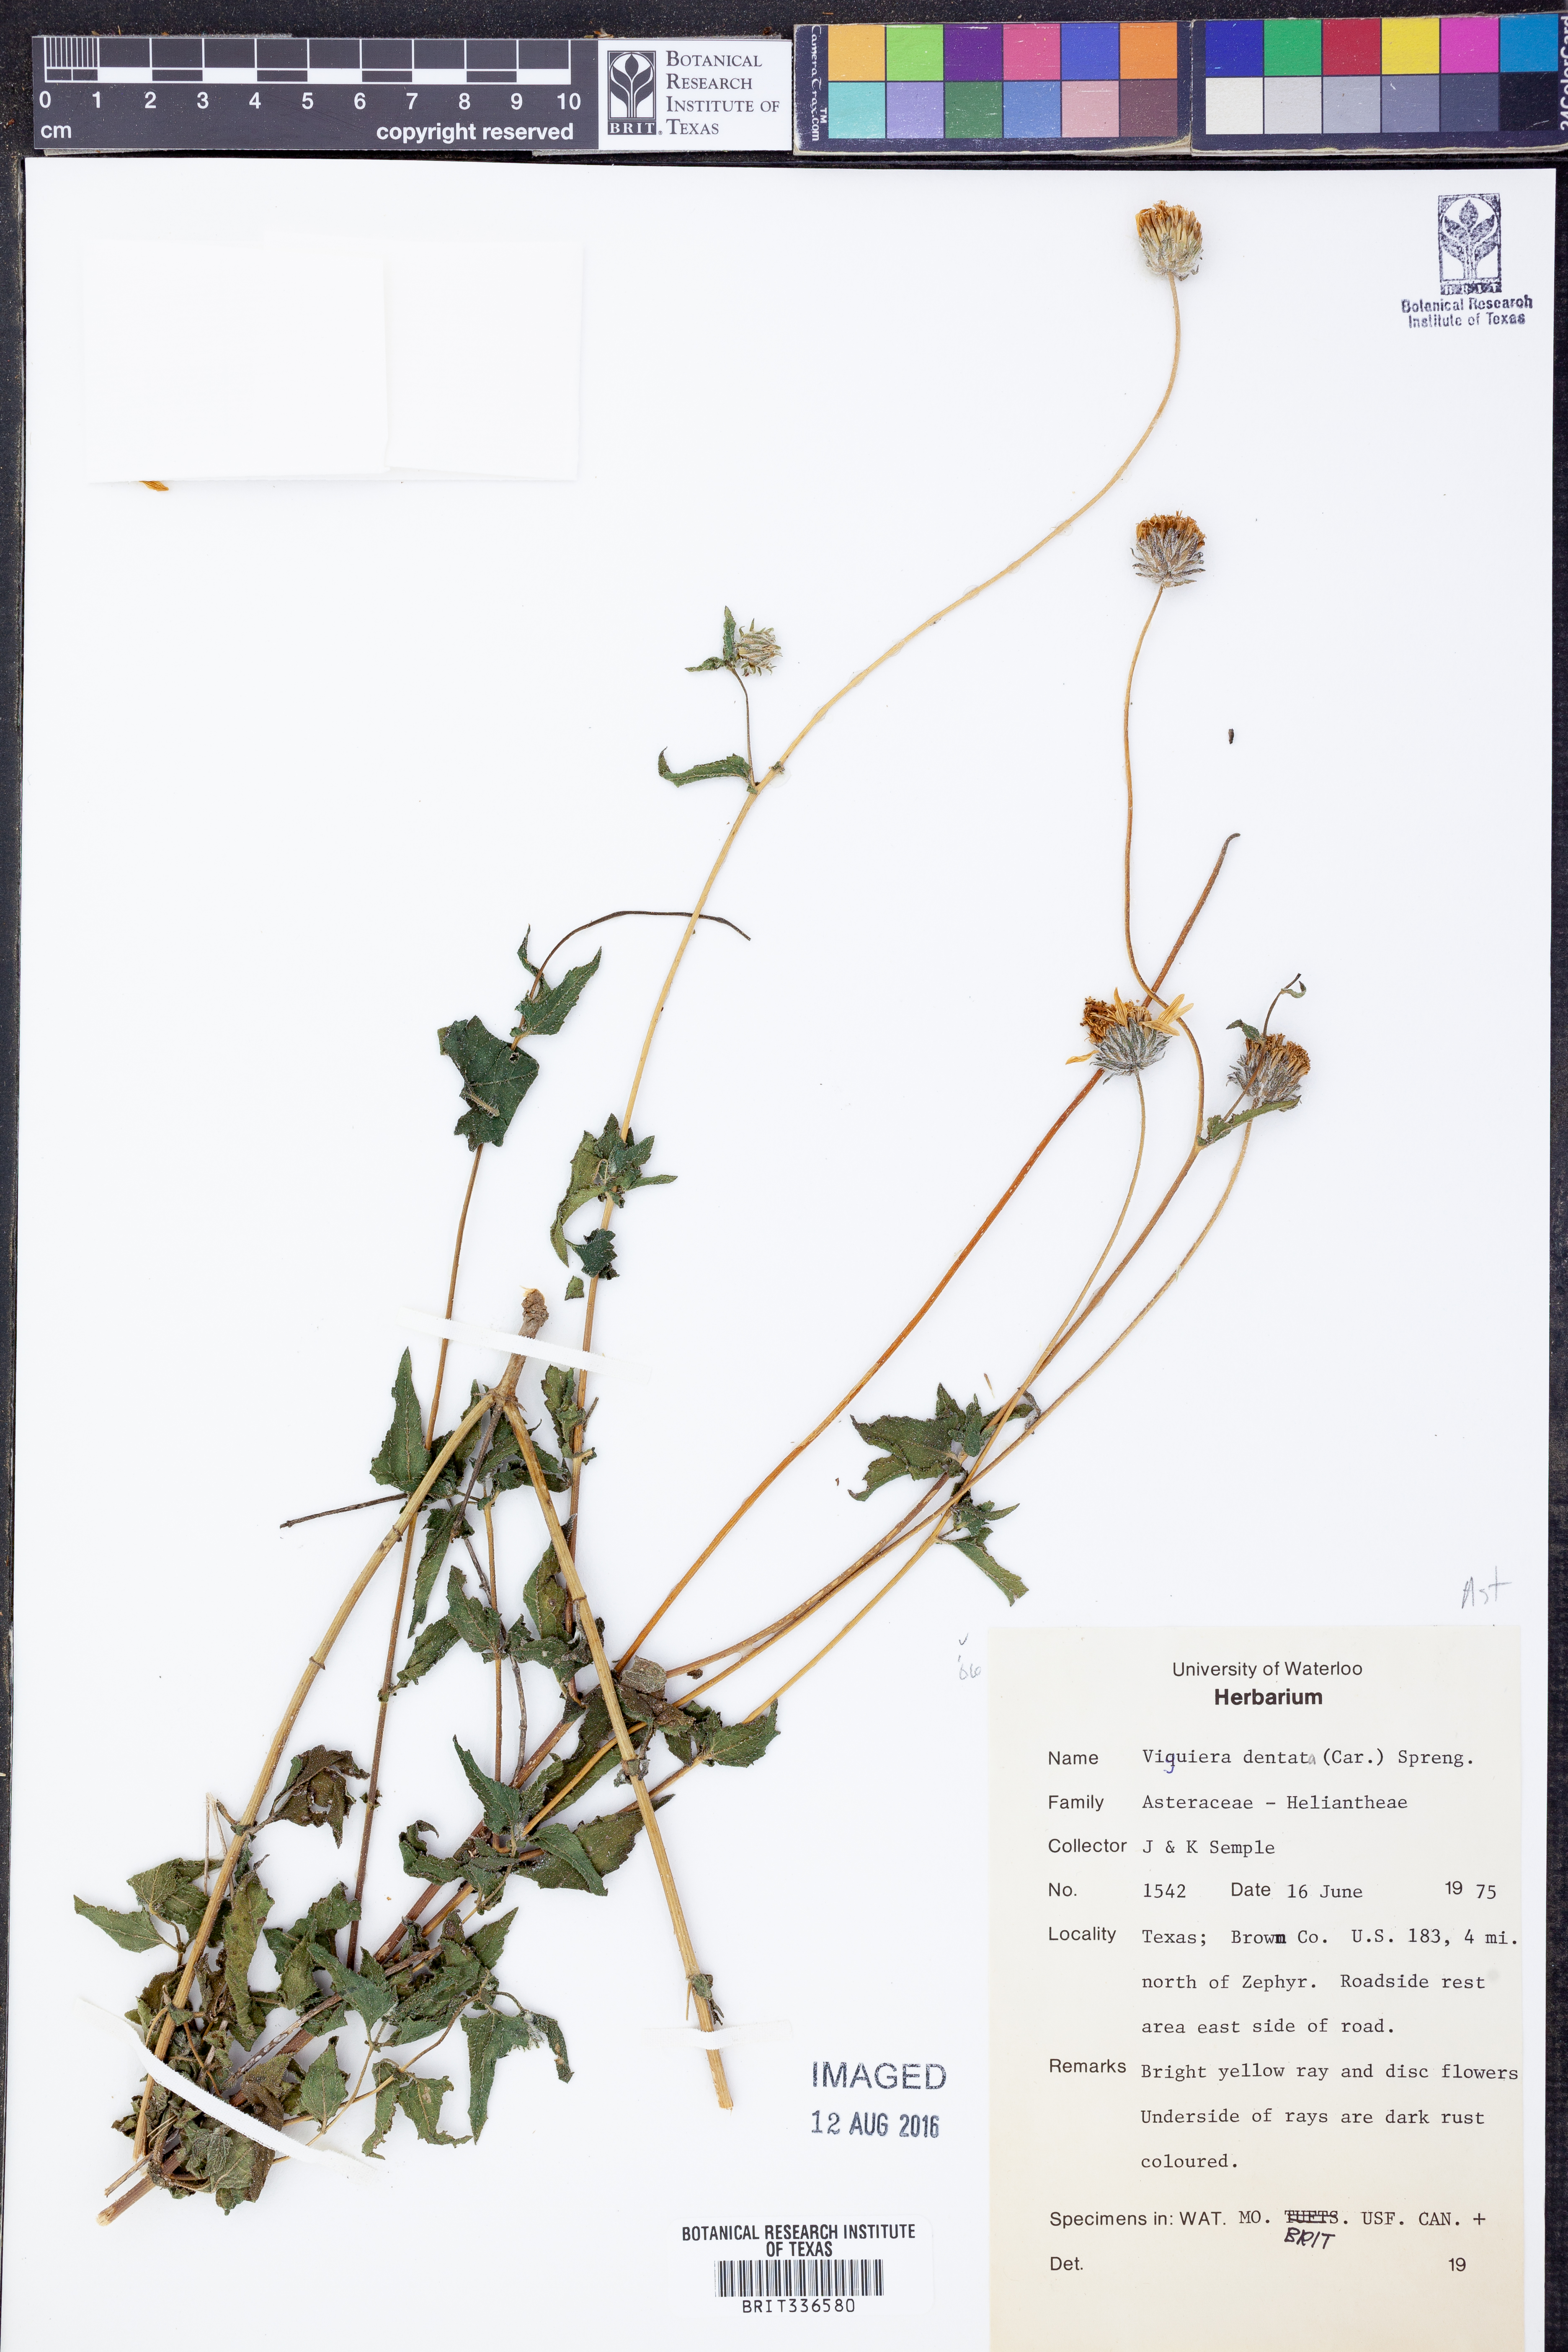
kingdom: Plantae
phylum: Tracheophyta
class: Magnoliopsida
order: Asterales
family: Asteraceae
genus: Viguiera
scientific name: Viguiera dentata
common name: Toothleaf
